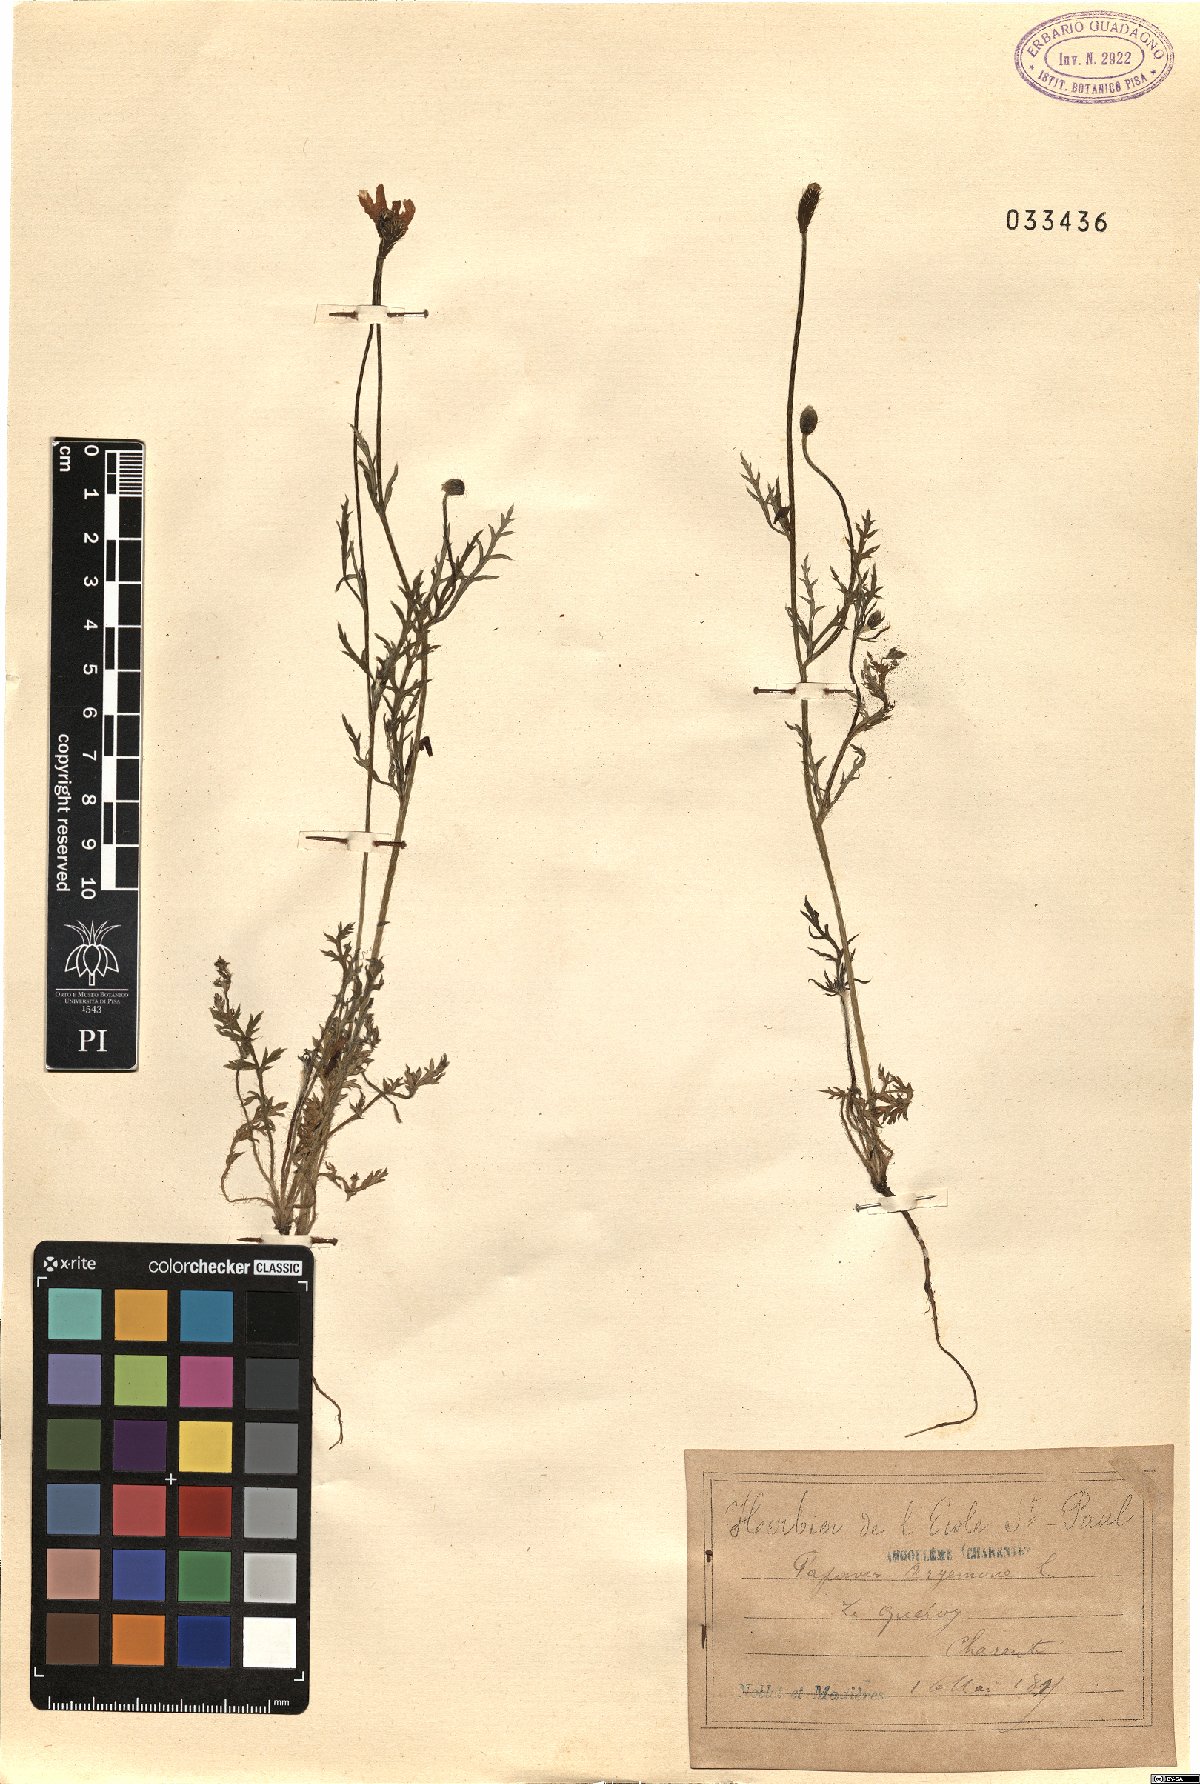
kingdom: Plantae
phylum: Tracheophyta
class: Magnoliopsida
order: Ranunculales
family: Papaveraceae
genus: Roemeria
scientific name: Roemeria argemone
